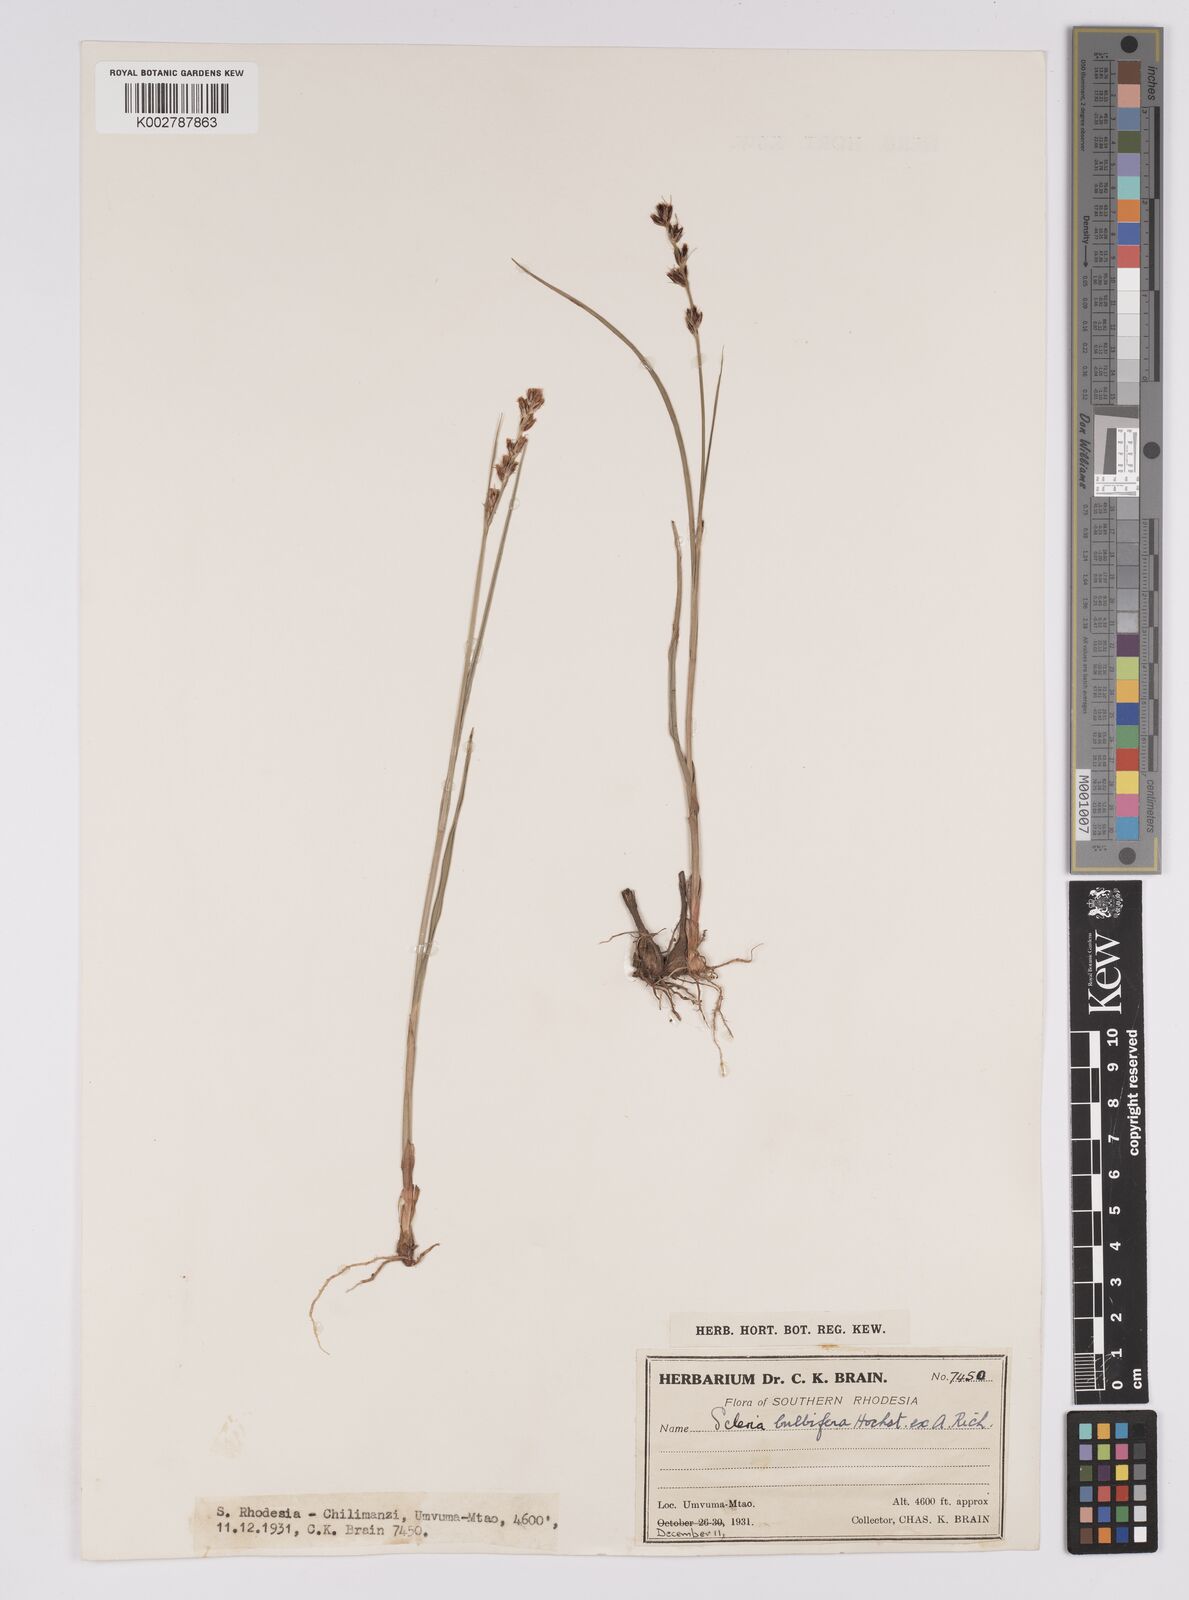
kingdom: Plantae
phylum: Tracheophyta
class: Liliopsida
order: Poales
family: Cyperaceae
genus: Scleria
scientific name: Scleria bulbifera
